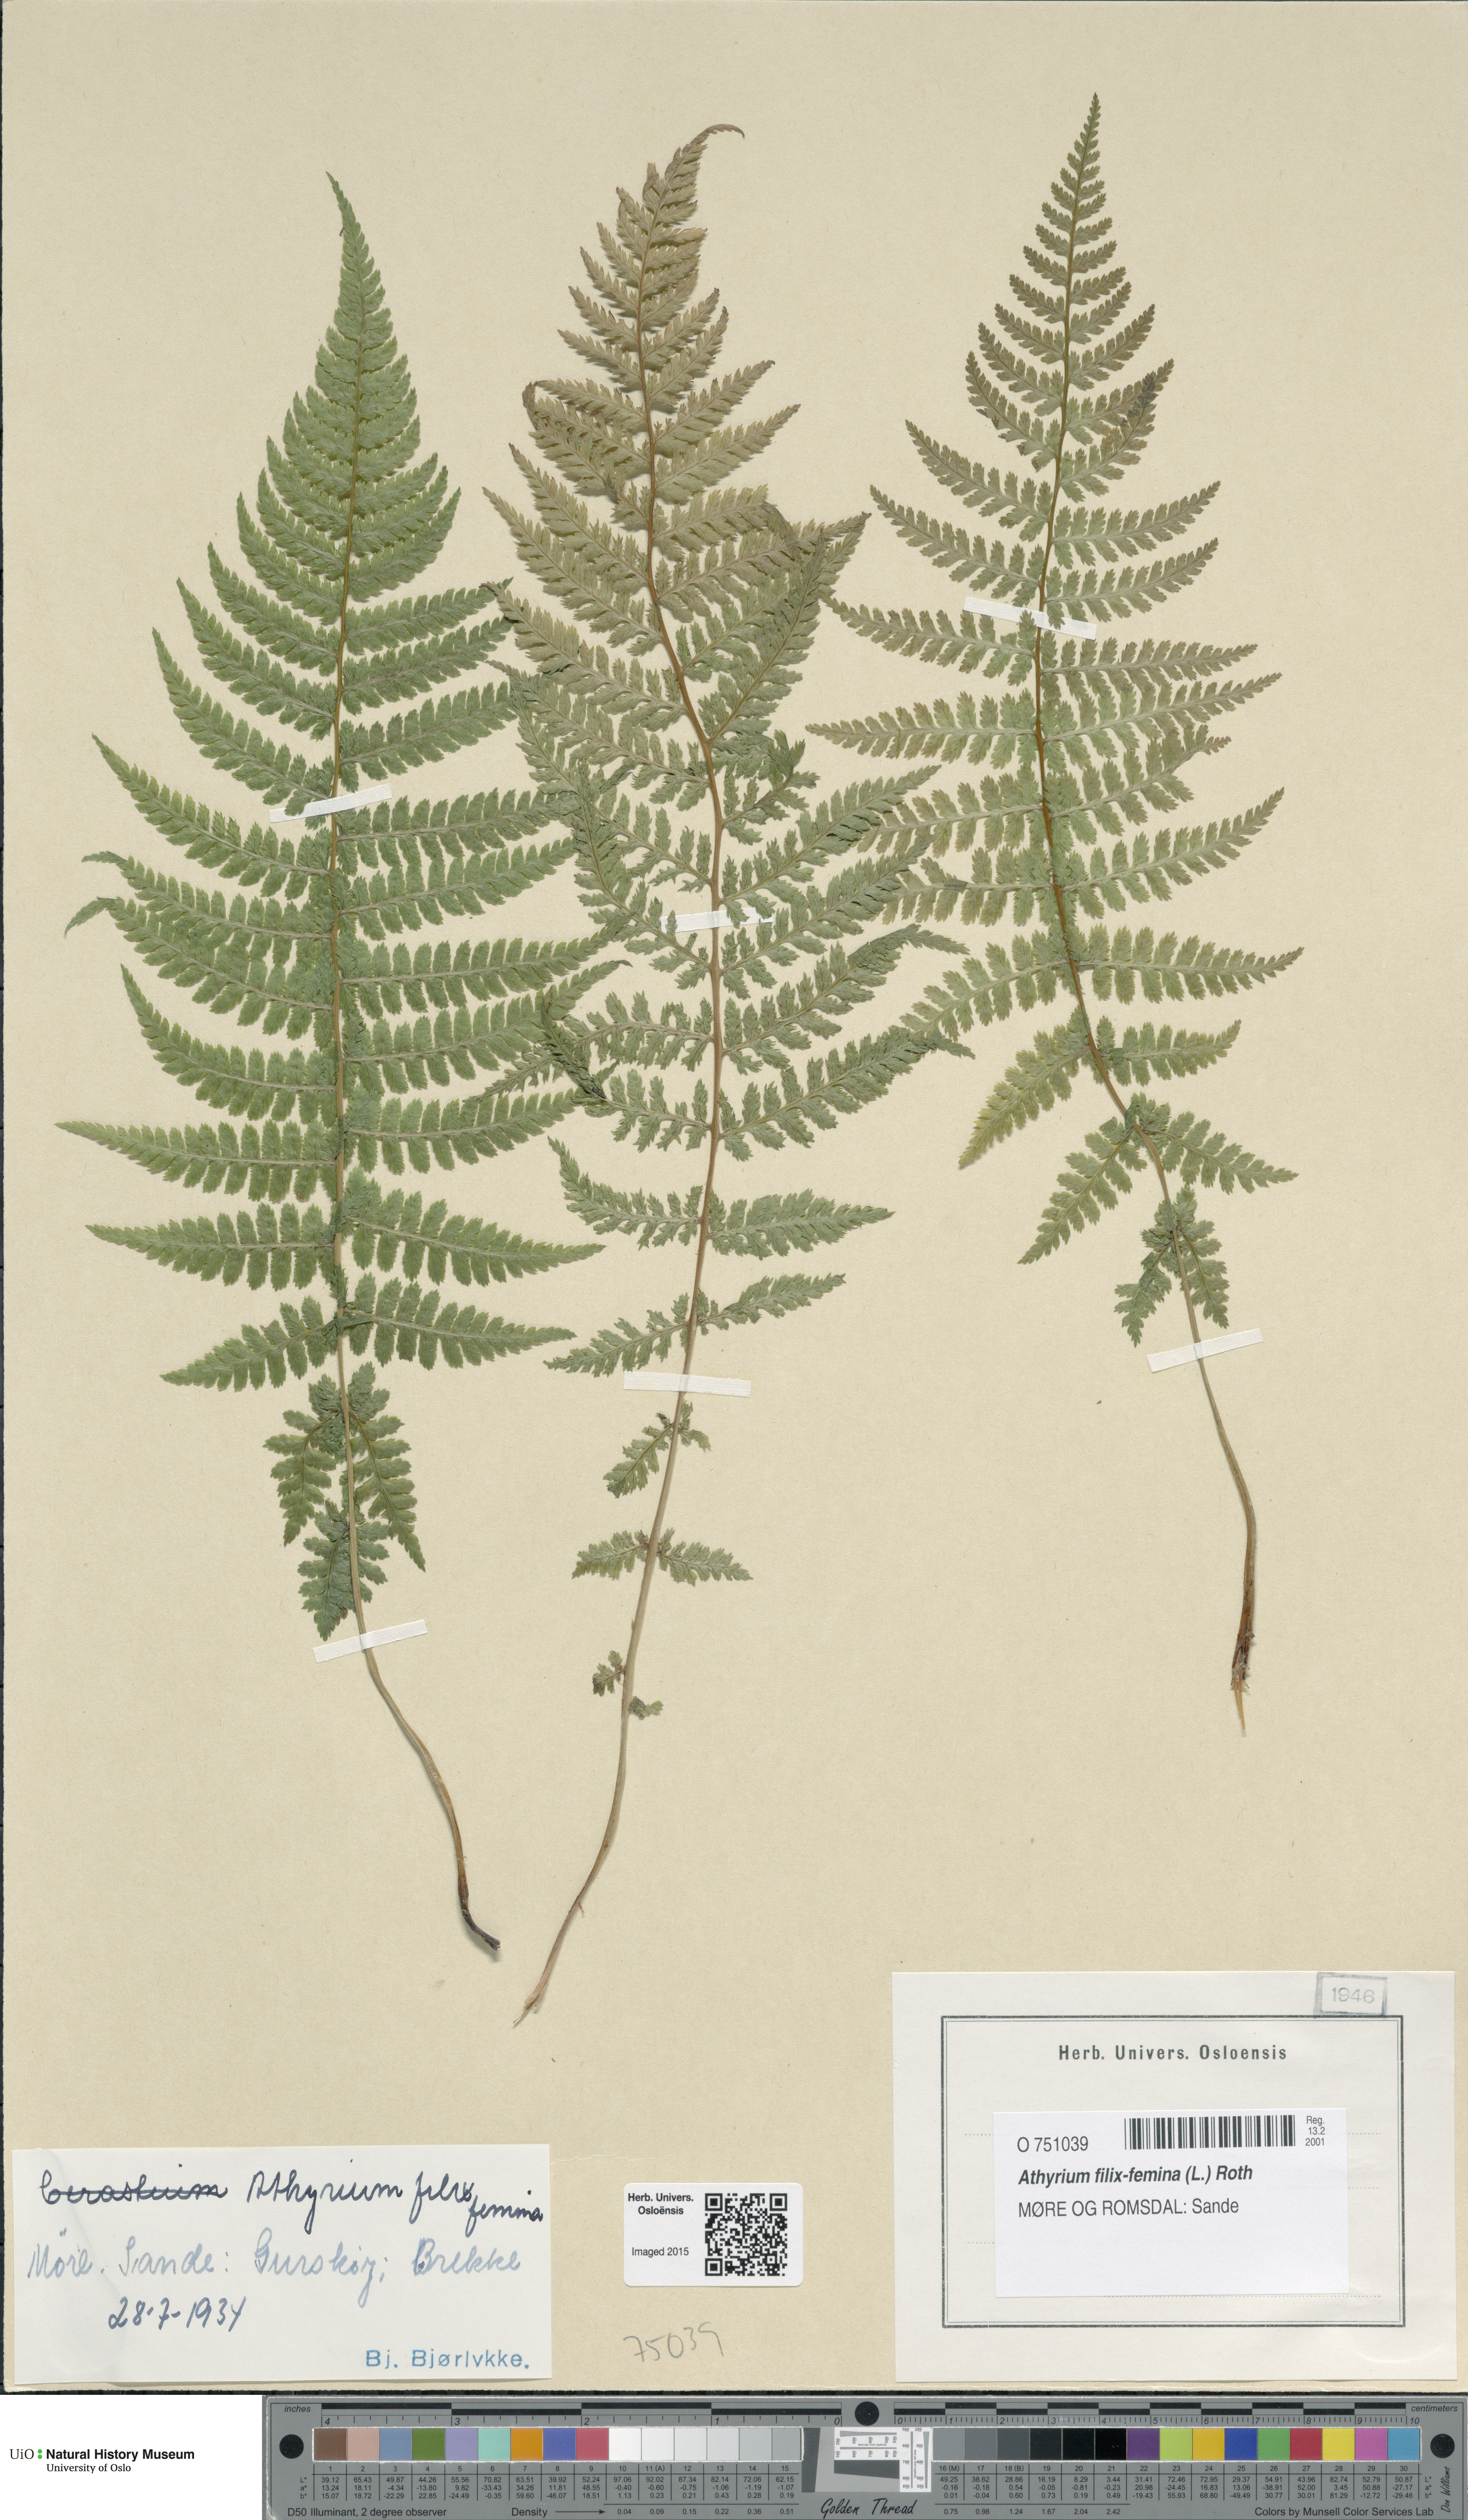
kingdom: Plantae
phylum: Tracheophyta
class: Polypodiopsida
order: Polypodiales
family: Athyriaceae
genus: Athyrium
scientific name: Athyrium filix-femina
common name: Lady fern
